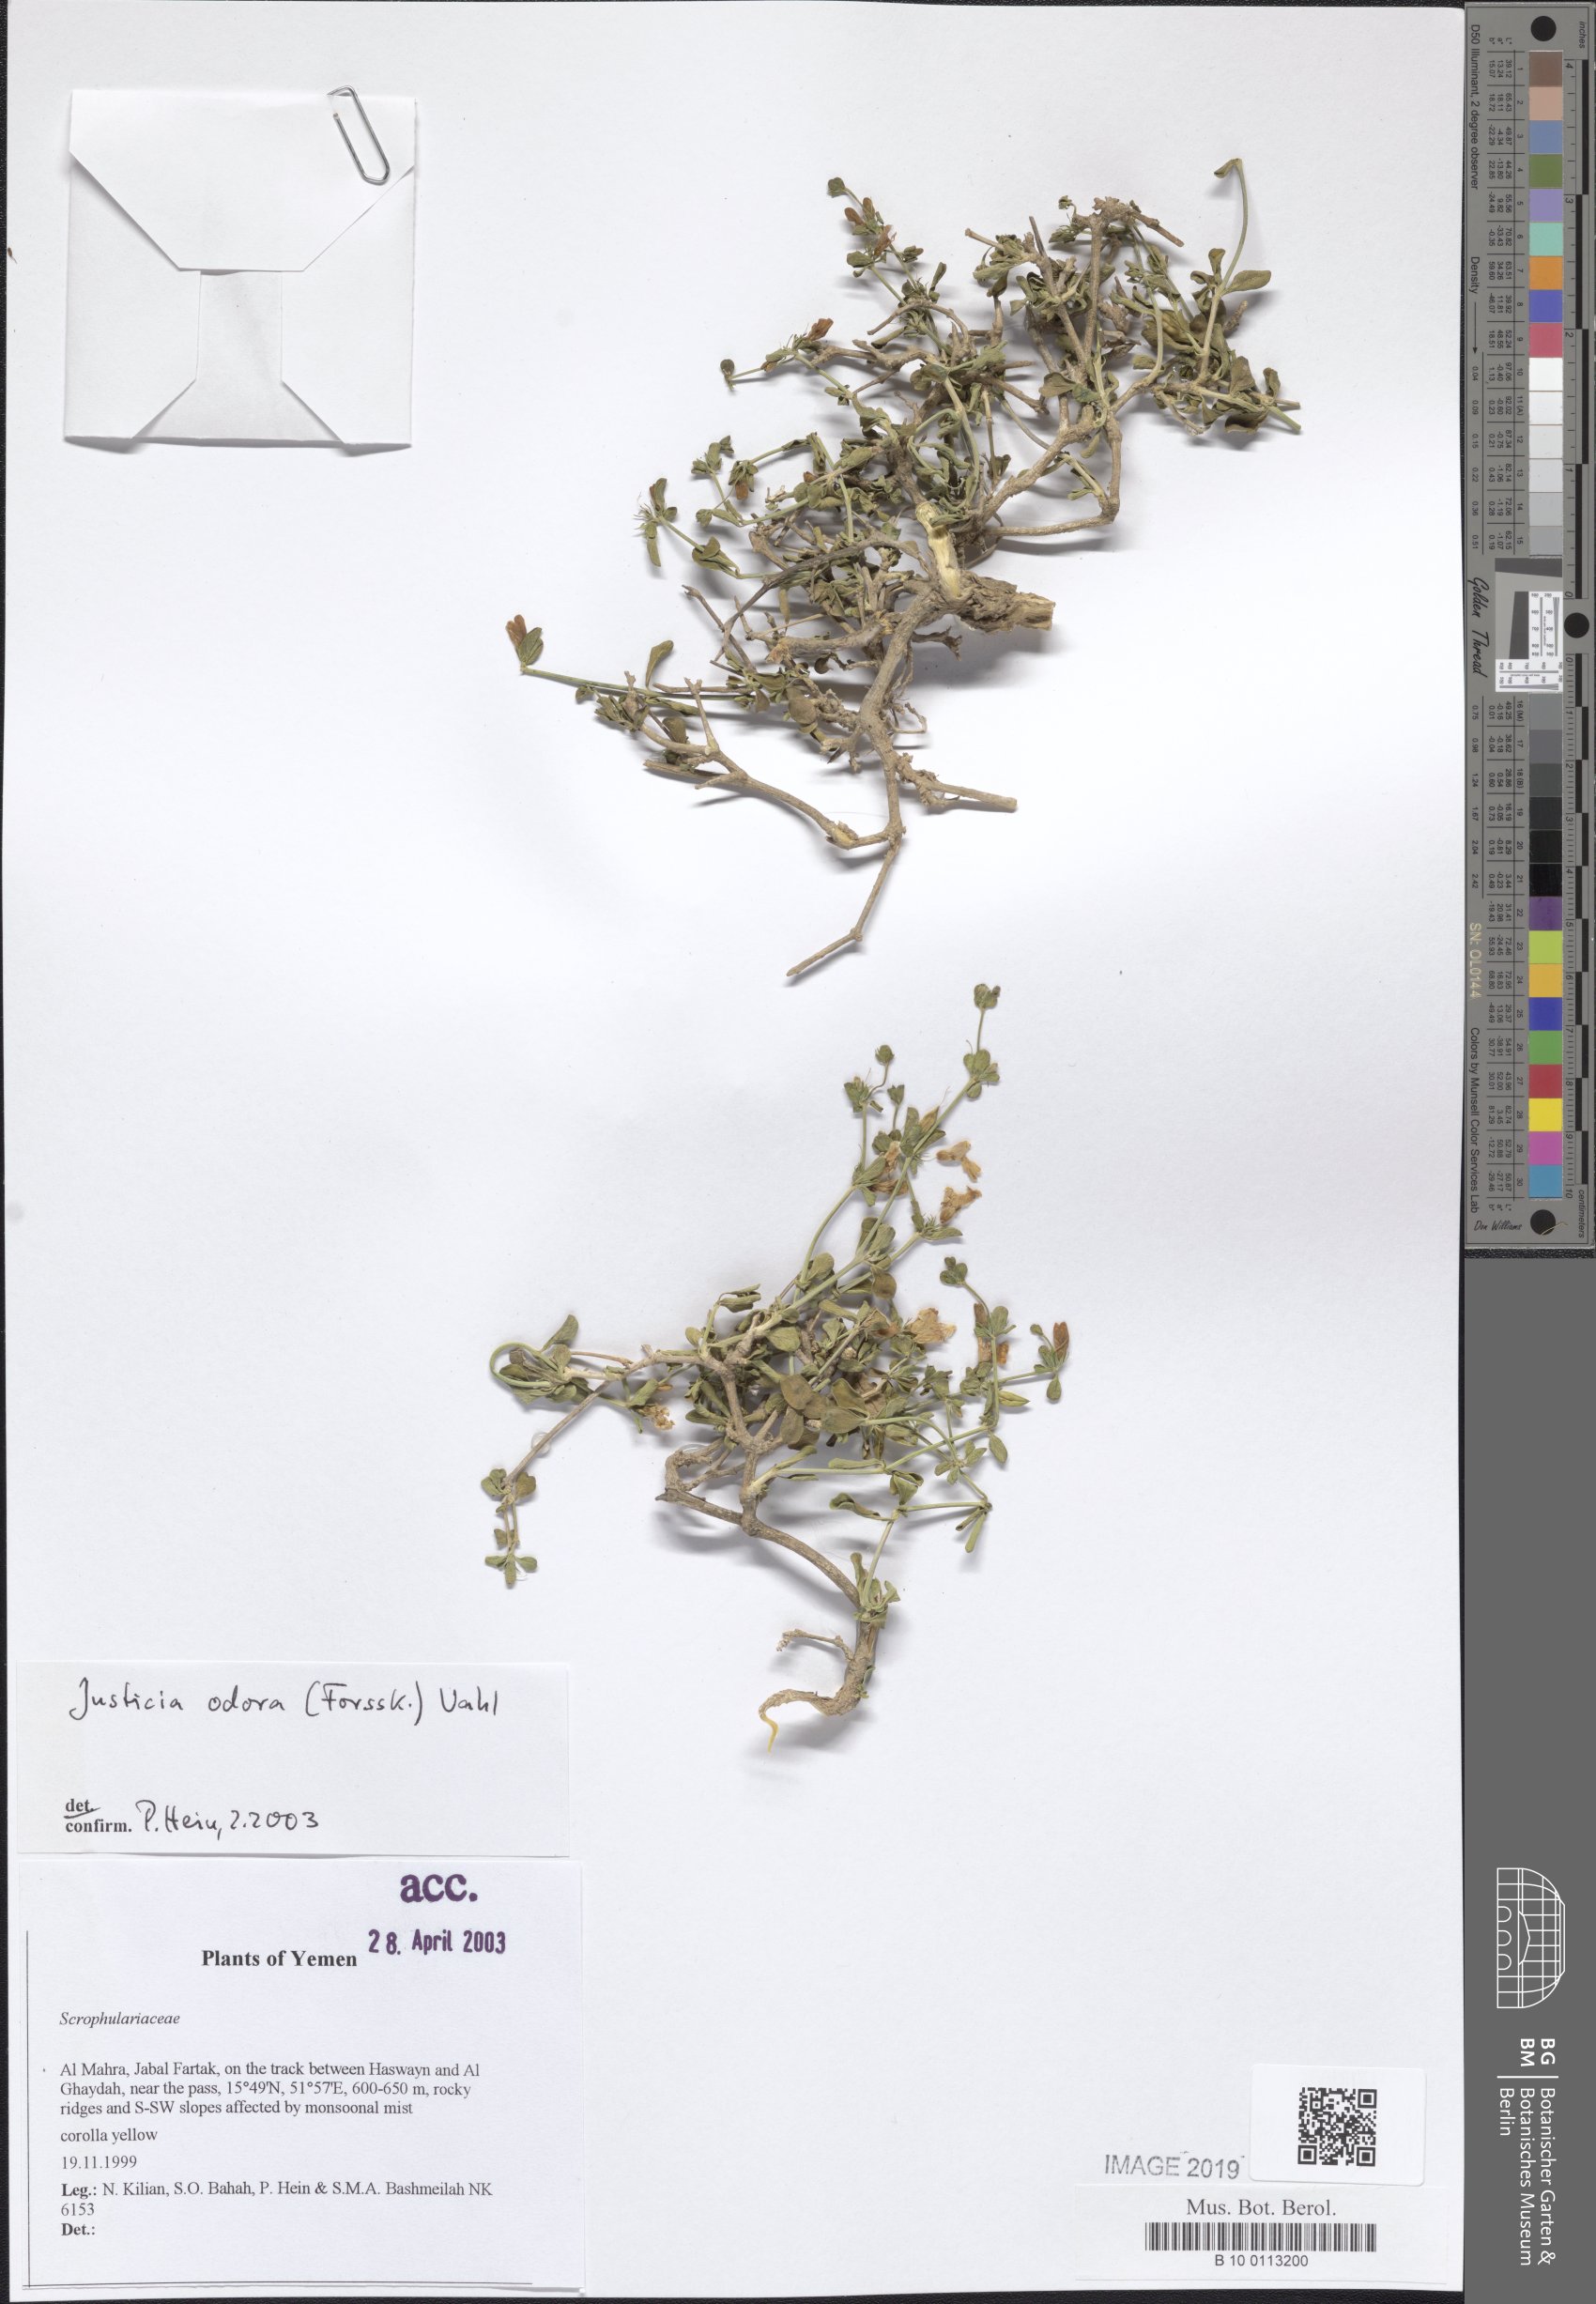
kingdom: Plantae
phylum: Tracheophyta
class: Magnoliopsida
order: Lamiales
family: Acanthaceae
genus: Justicia
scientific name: Justicia odora
